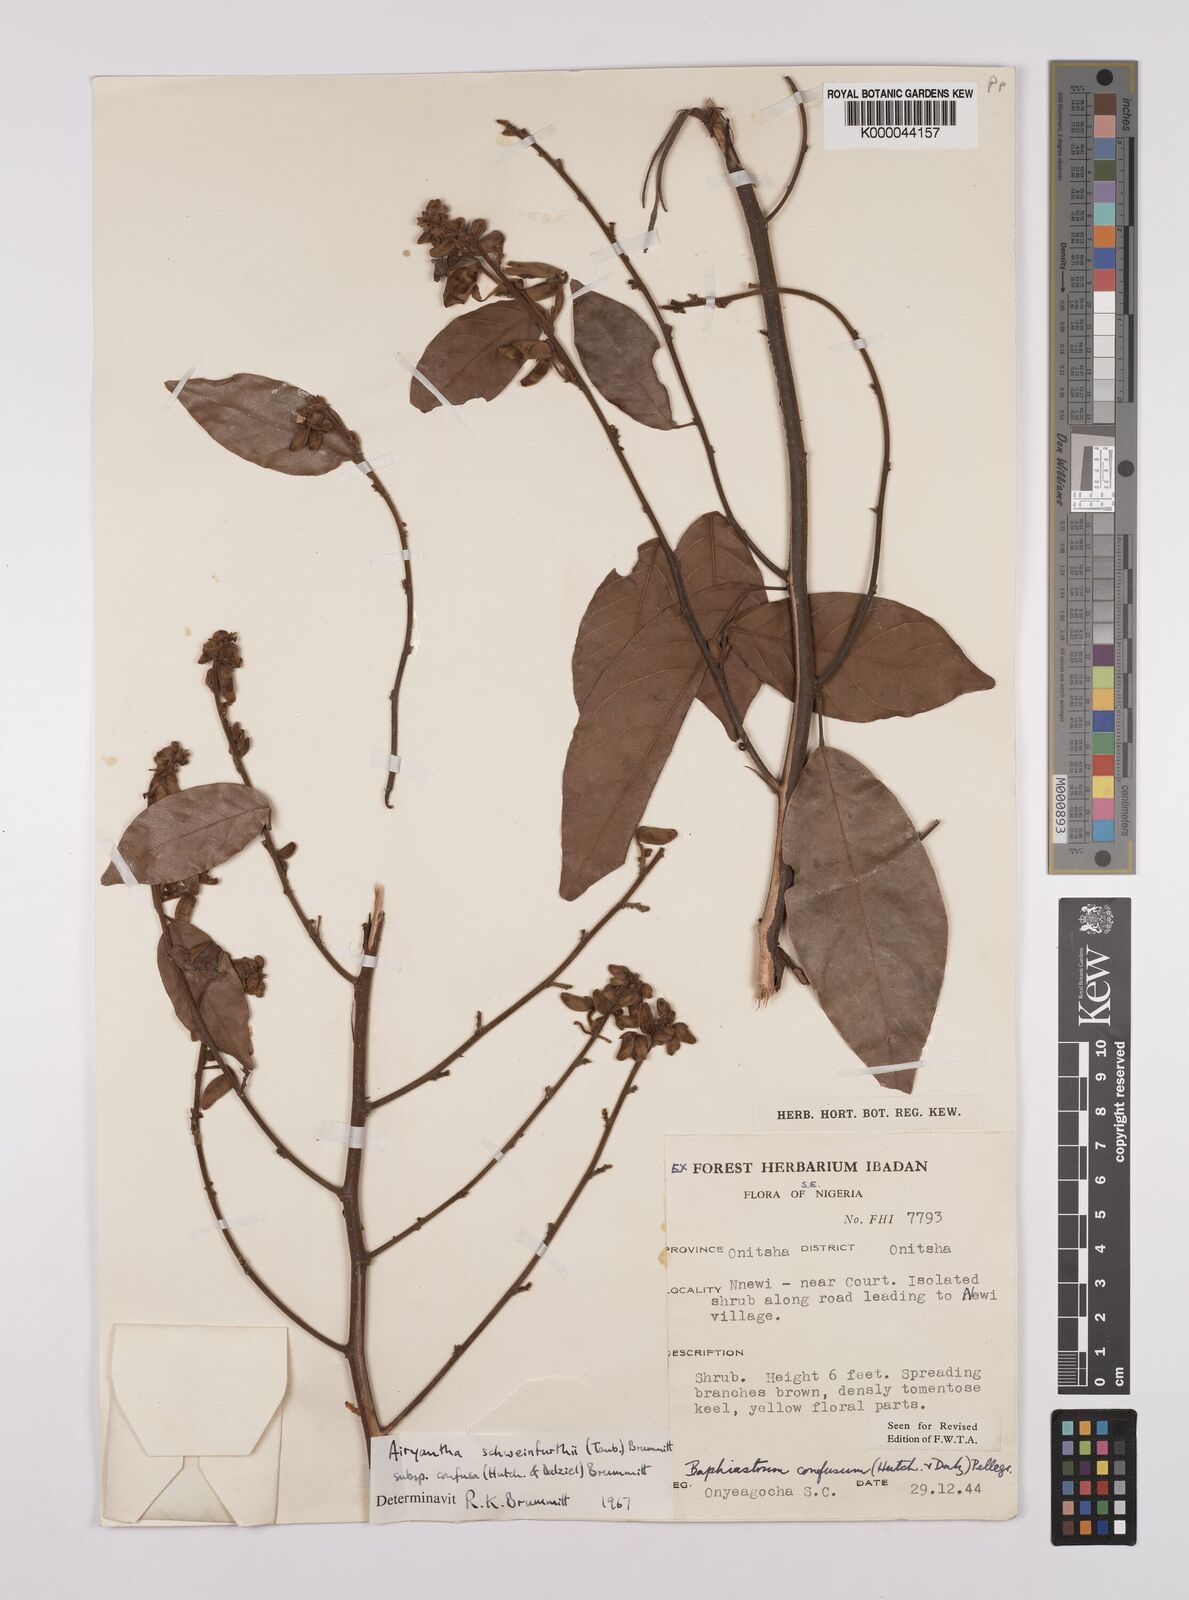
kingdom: Plantae
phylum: Tracheophyta
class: Magnoliopsida
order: Fabales
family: Fabaceae
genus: Airyantha
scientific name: Airyantha schweinfurthii
